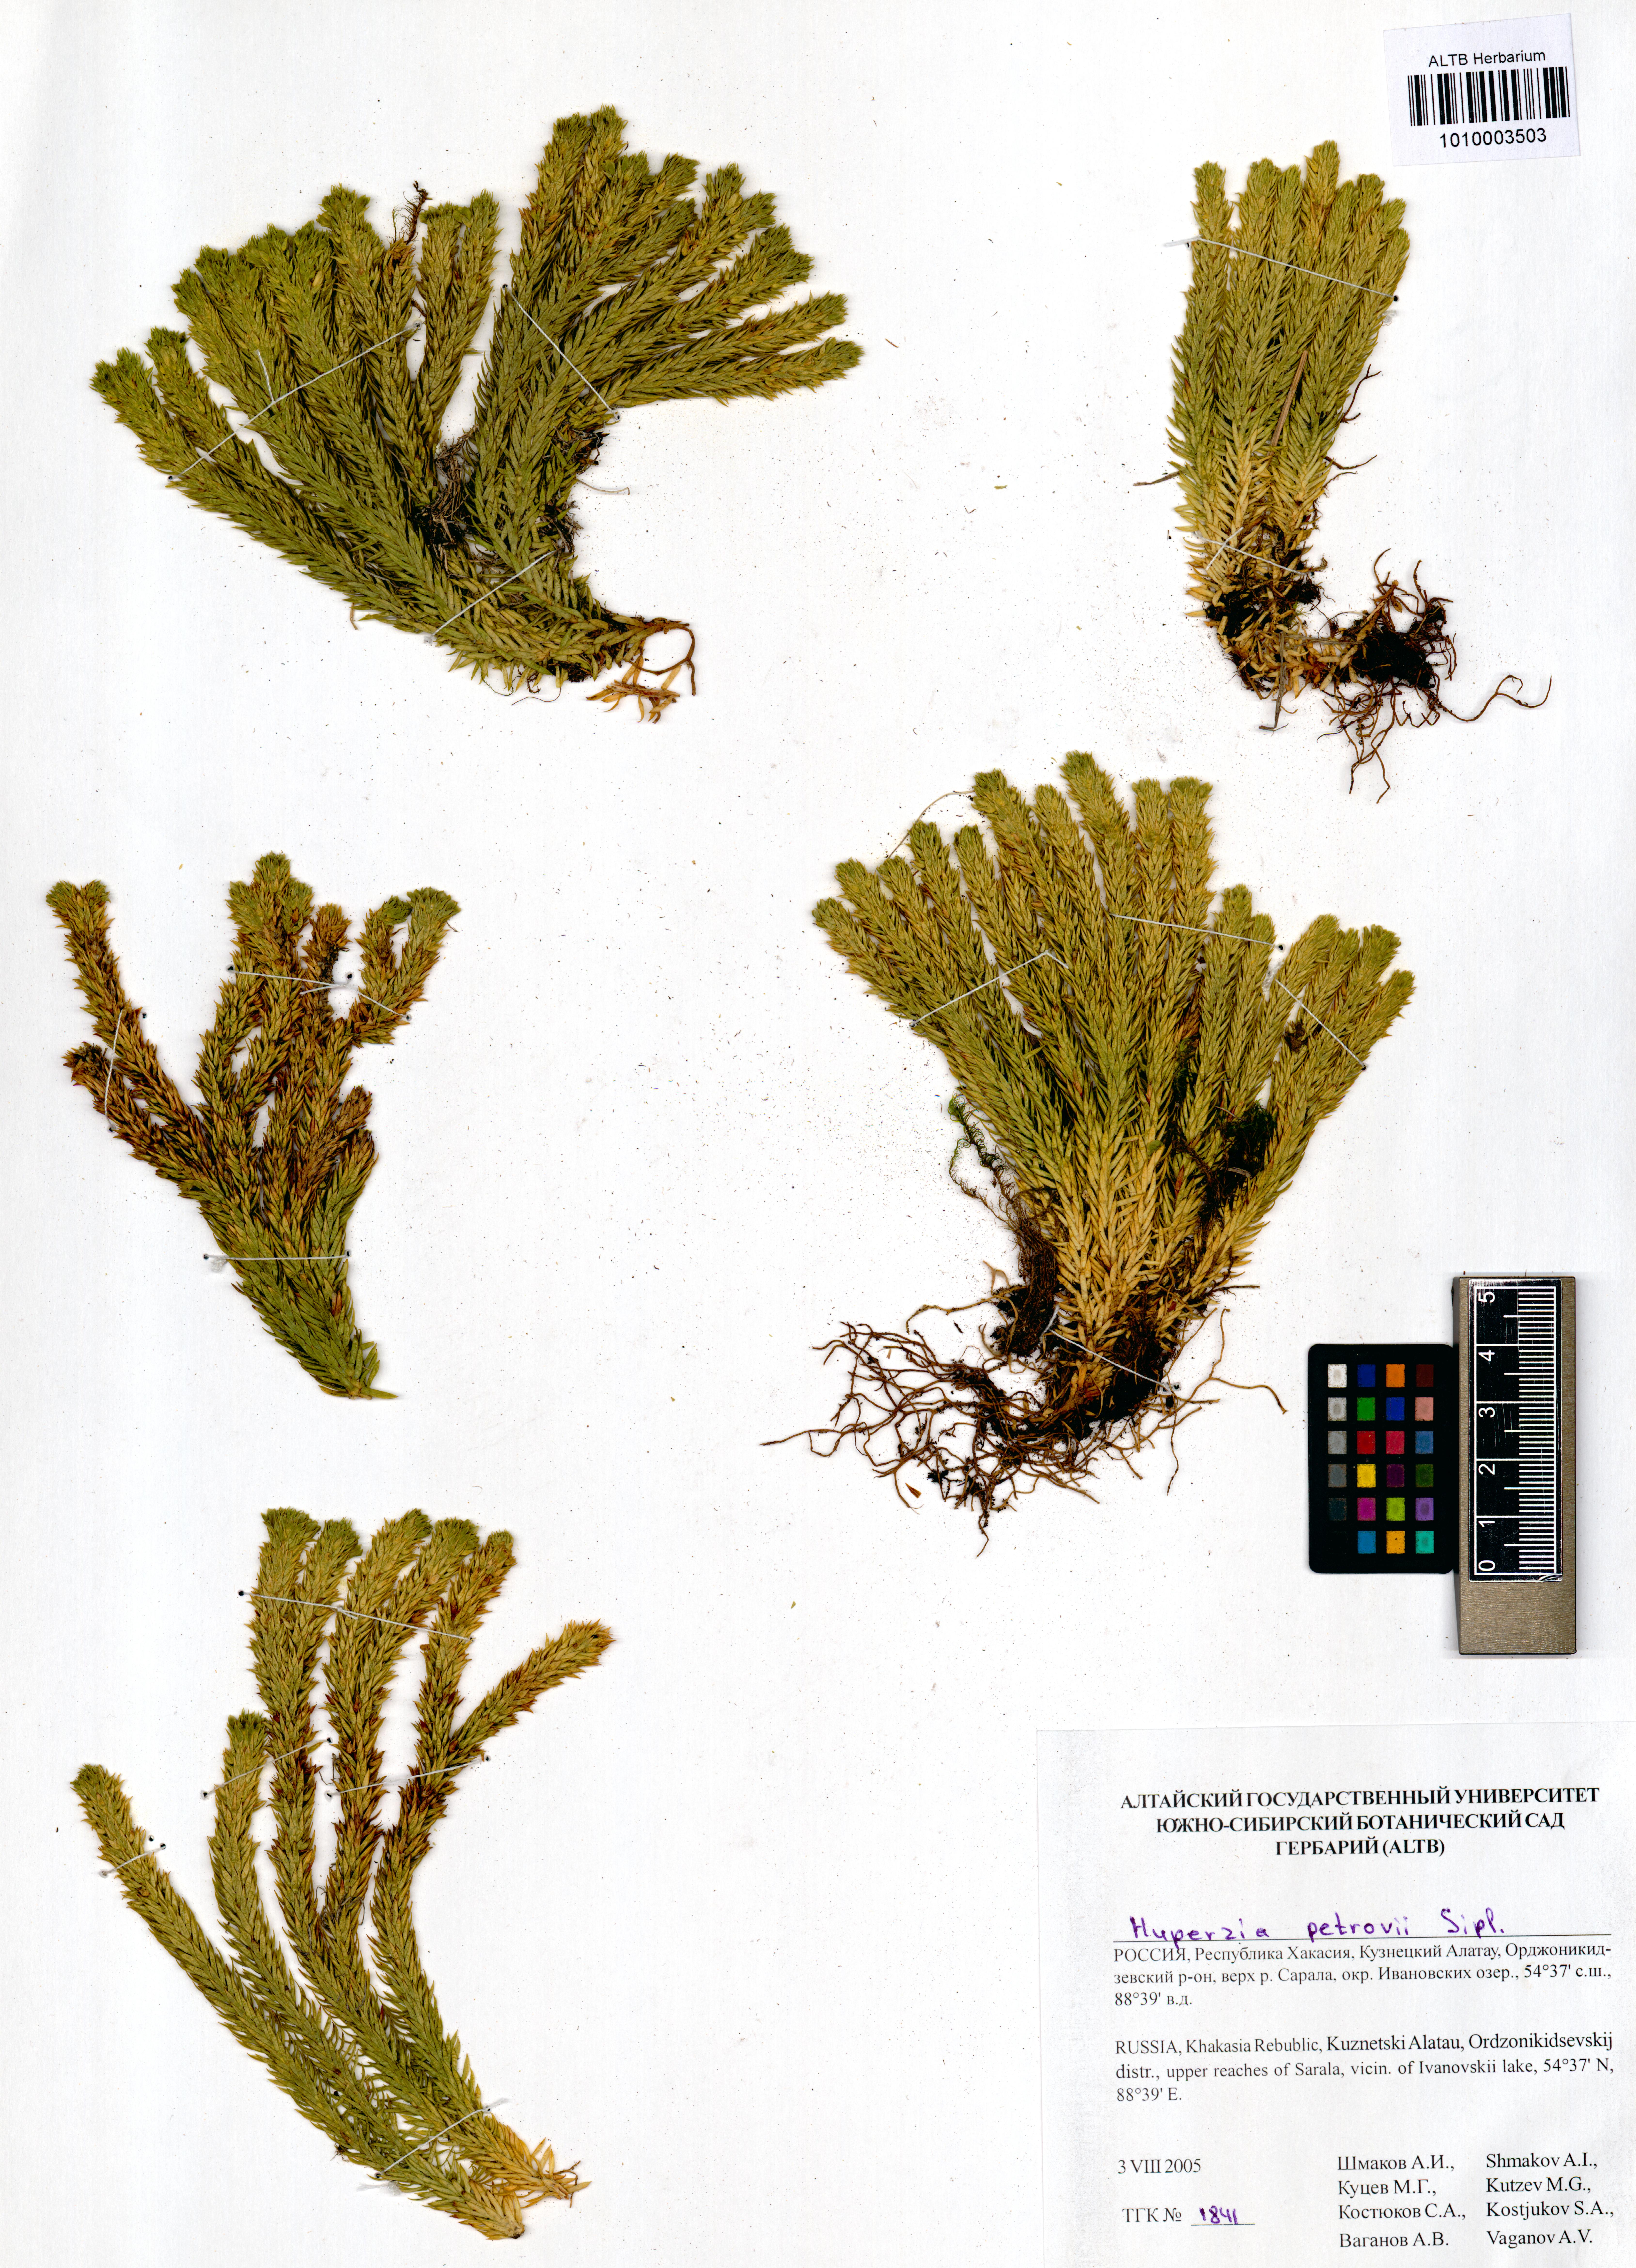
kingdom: Plantae
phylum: Tracheophyta
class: Lycopodiopsida
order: Lycopodiales
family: Lycopodiaceae
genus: Huperzia
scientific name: Huperzia selago
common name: Northern firmoss
